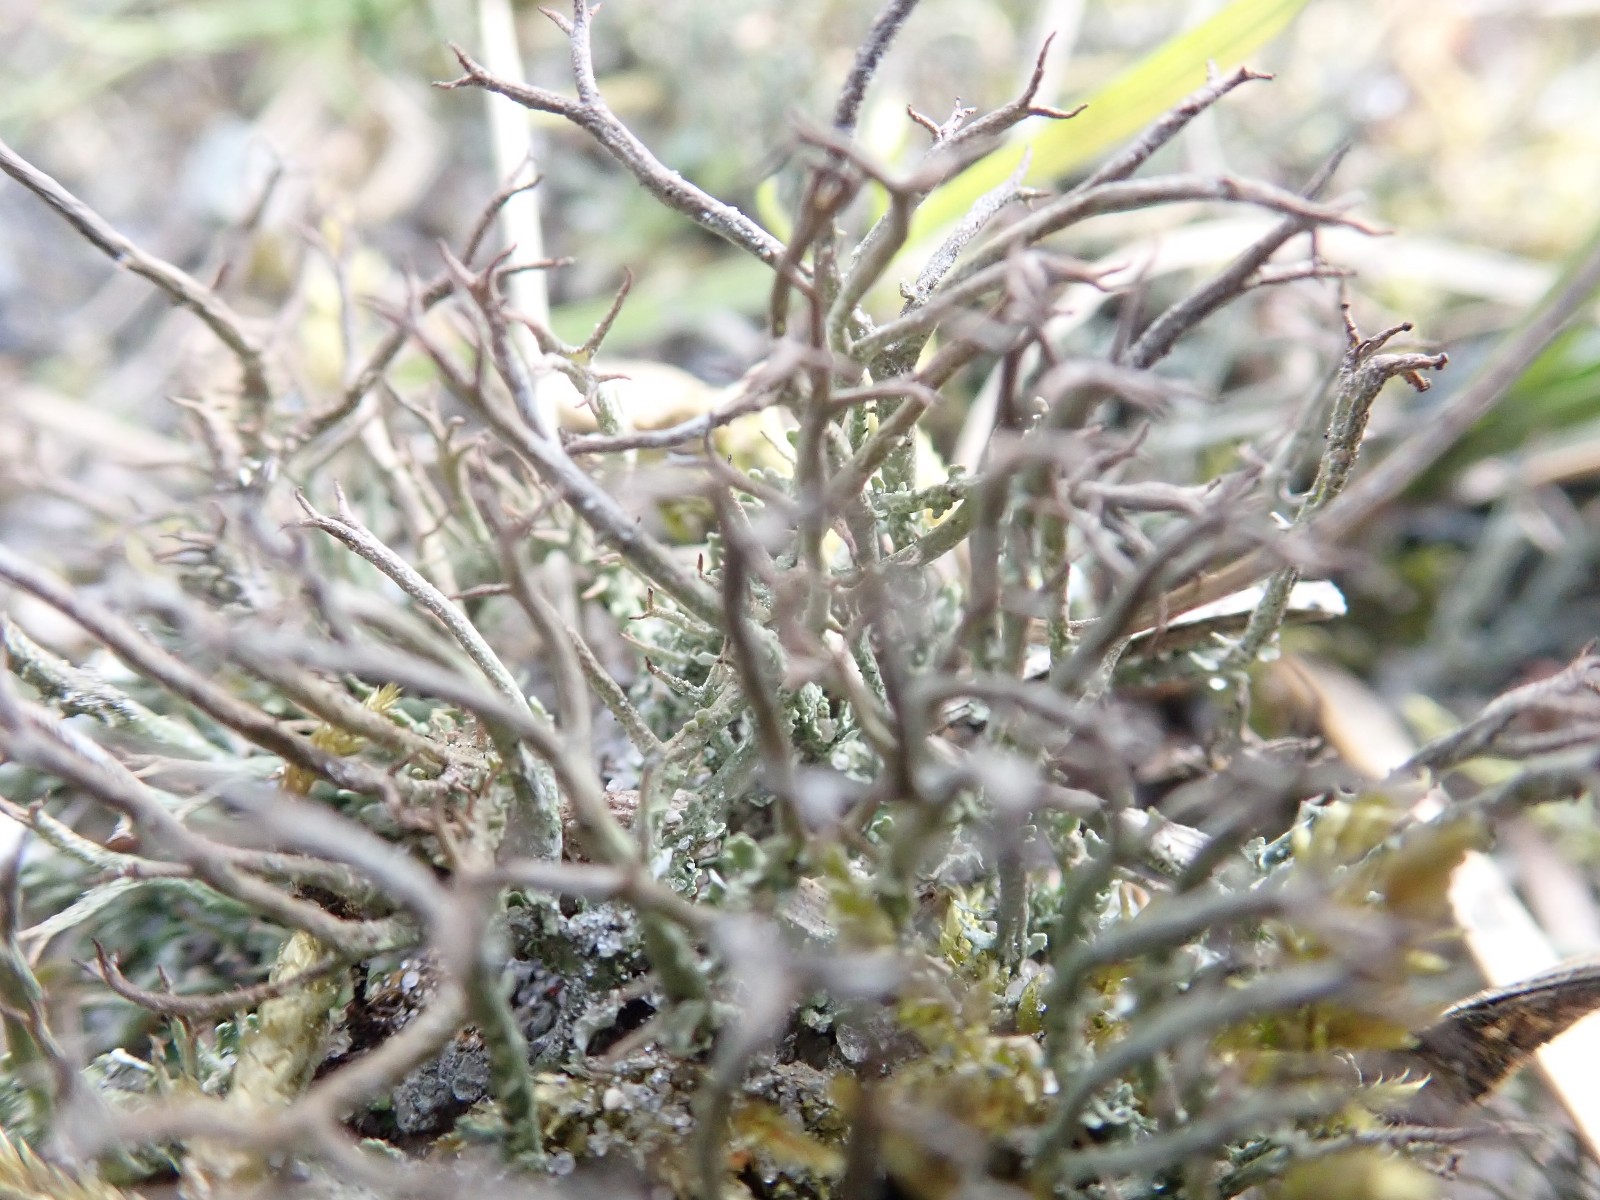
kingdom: Fungi
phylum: Ascomycota
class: Lecanoromycetes
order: Lecanorales
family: Cladoniaceae
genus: Cladonia
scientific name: Cladonia furcata
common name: kløftet bægerlav
